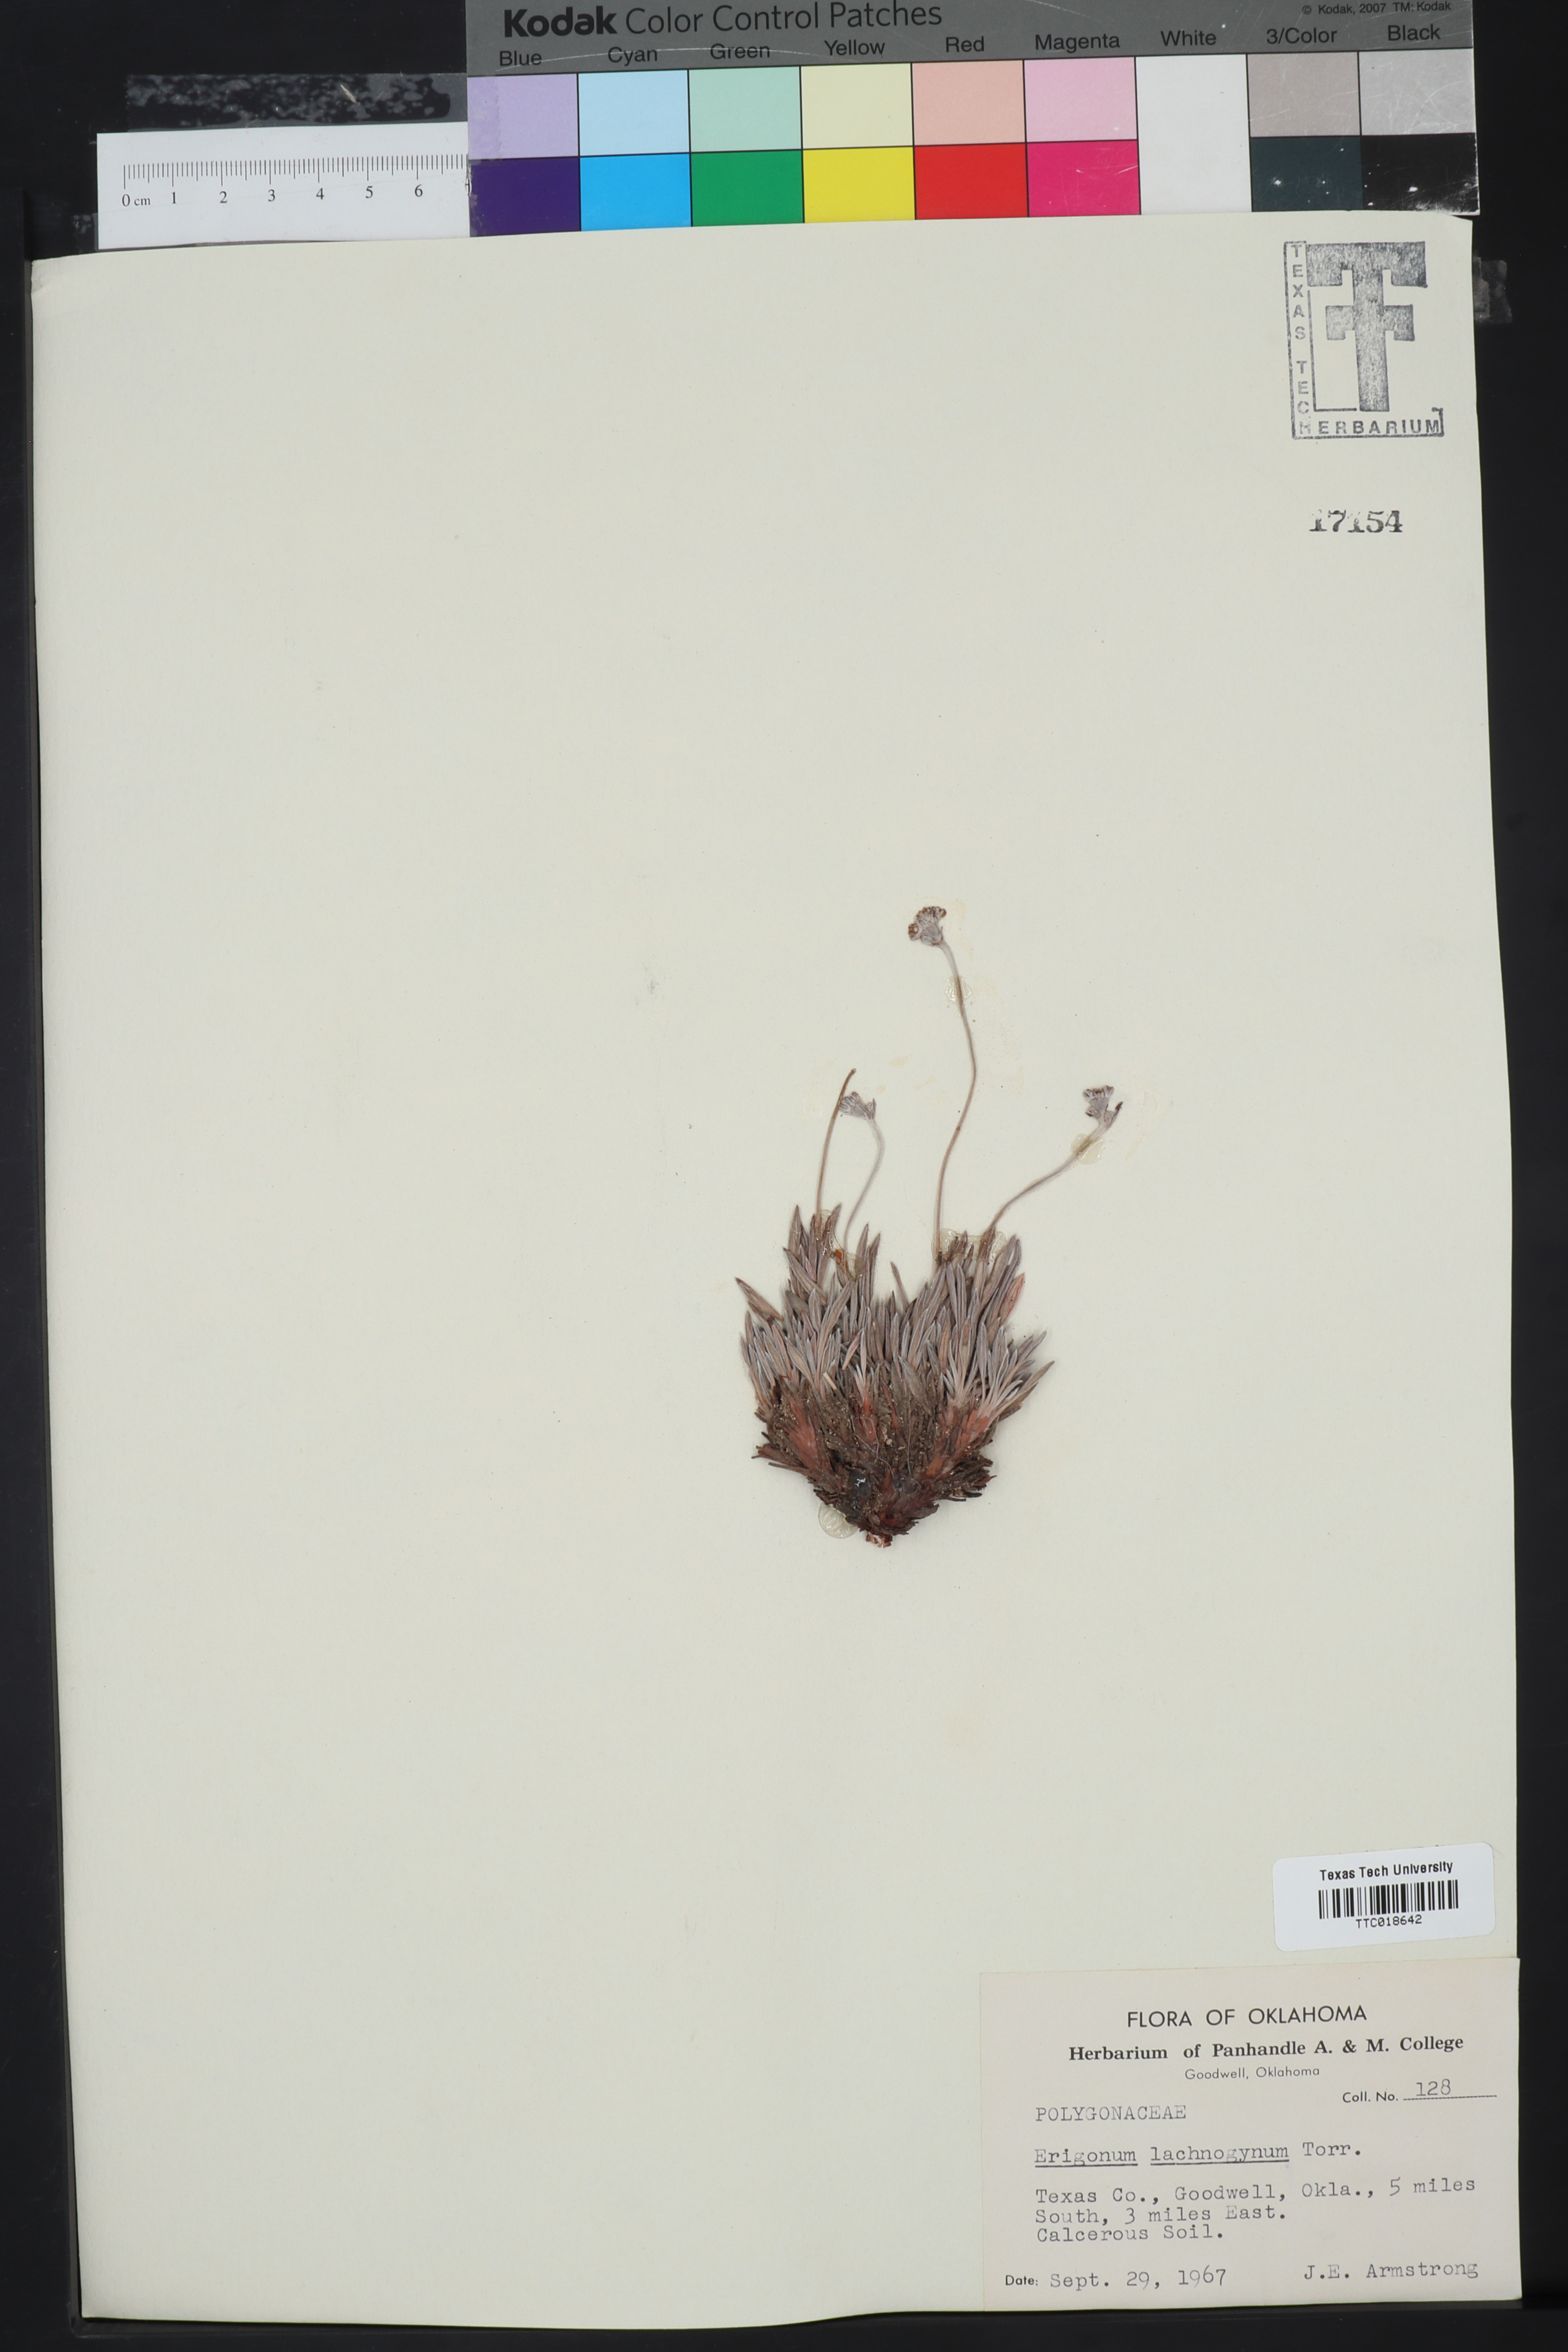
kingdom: Plantae
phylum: Tracheophyta
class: Magnoliopsida
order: Caryophyllales
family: Polygonaceae
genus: Eriogonum
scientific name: Eriogonum lachnogynum
